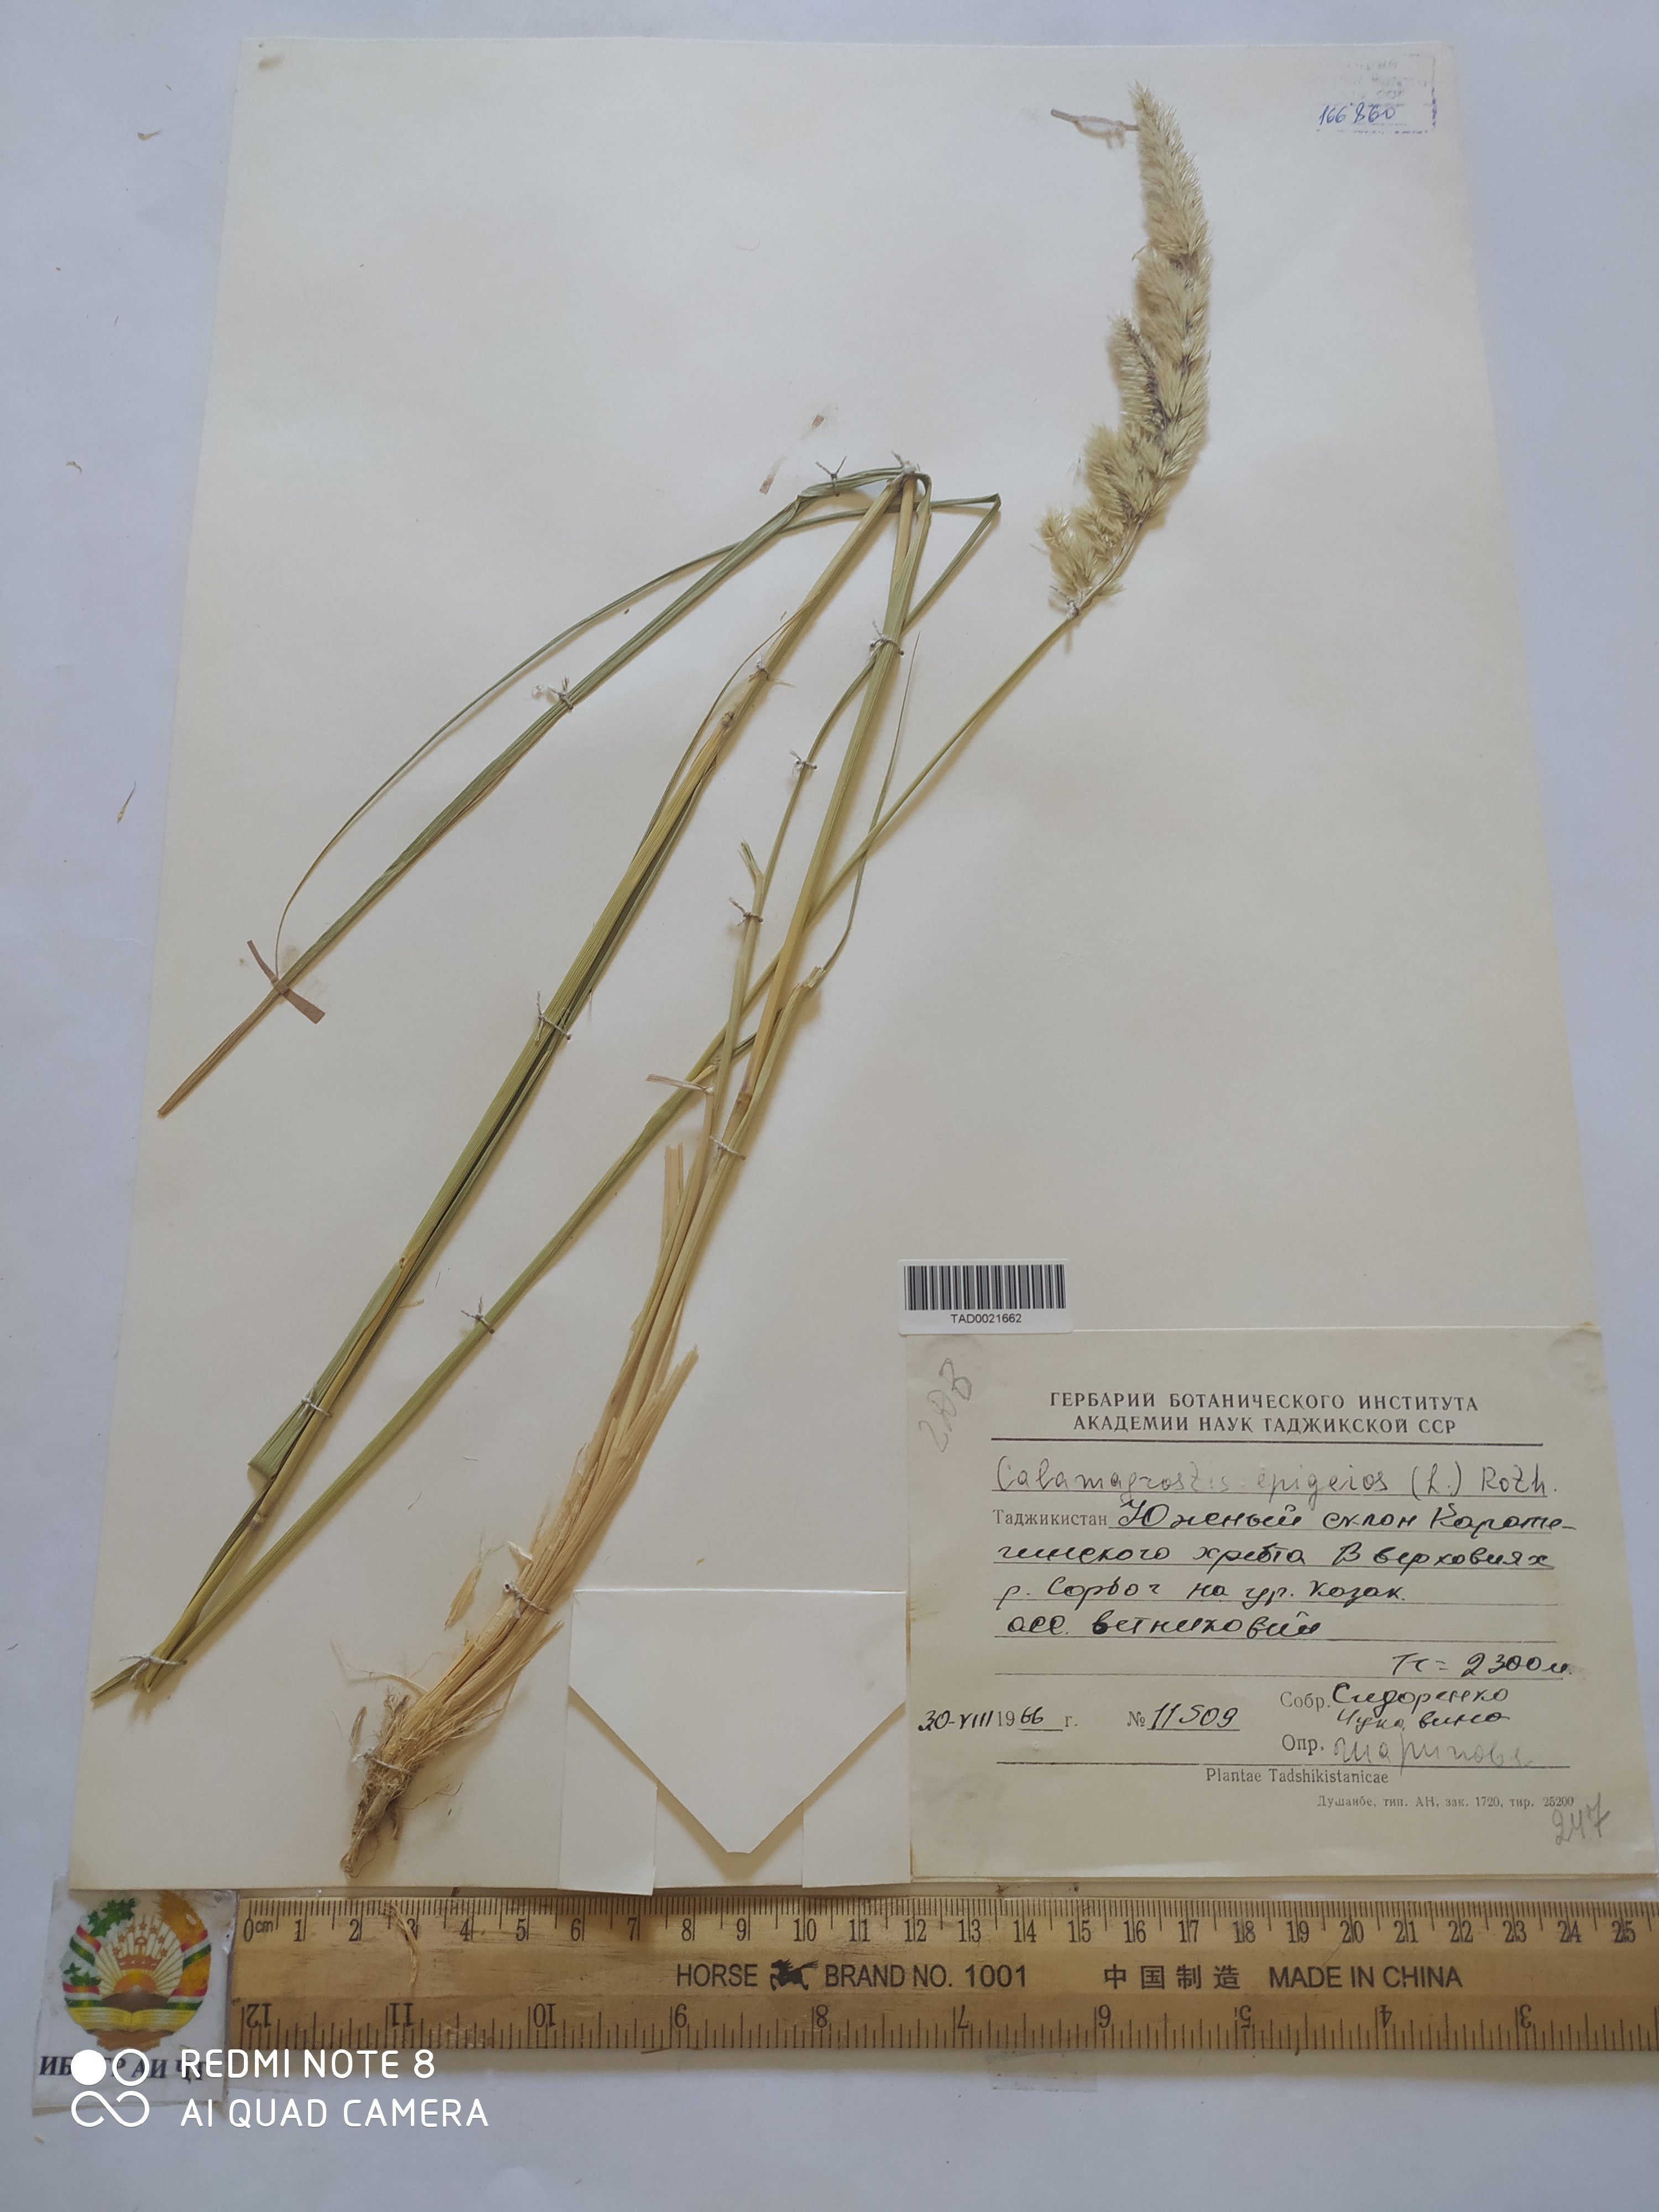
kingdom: Plantae
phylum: Tracheophyta
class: Liliopsida
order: Poales
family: Poaceae
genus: Calamagrostis
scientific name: Calamagrostis epigejos
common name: Wood small-reed
